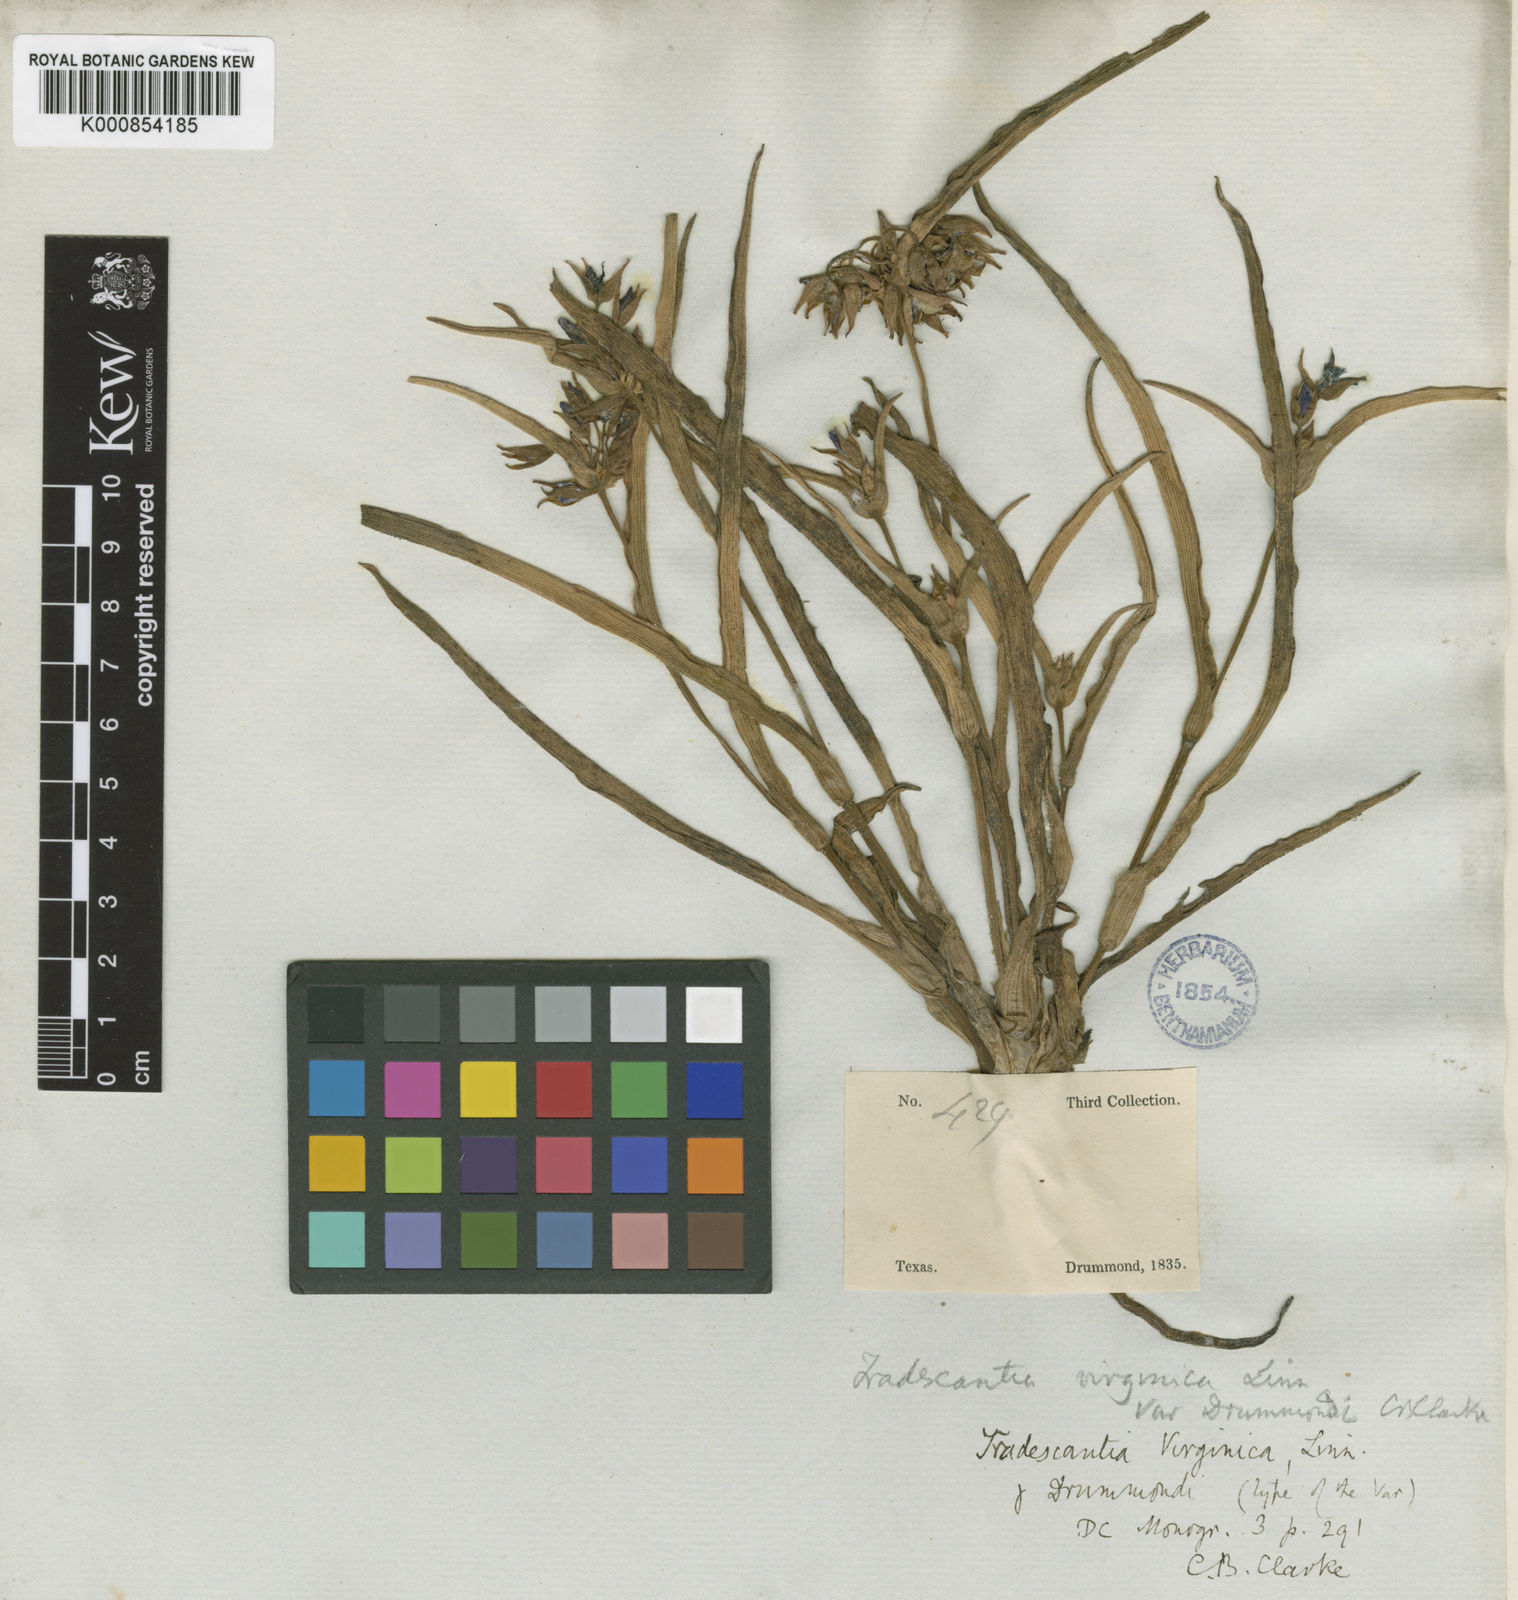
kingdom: Plantae
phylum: Tracheophyta
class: Liliopsida
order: Commelinales
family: Commelinaceae
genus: Tradescantia
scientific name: Tradescantia humilis
